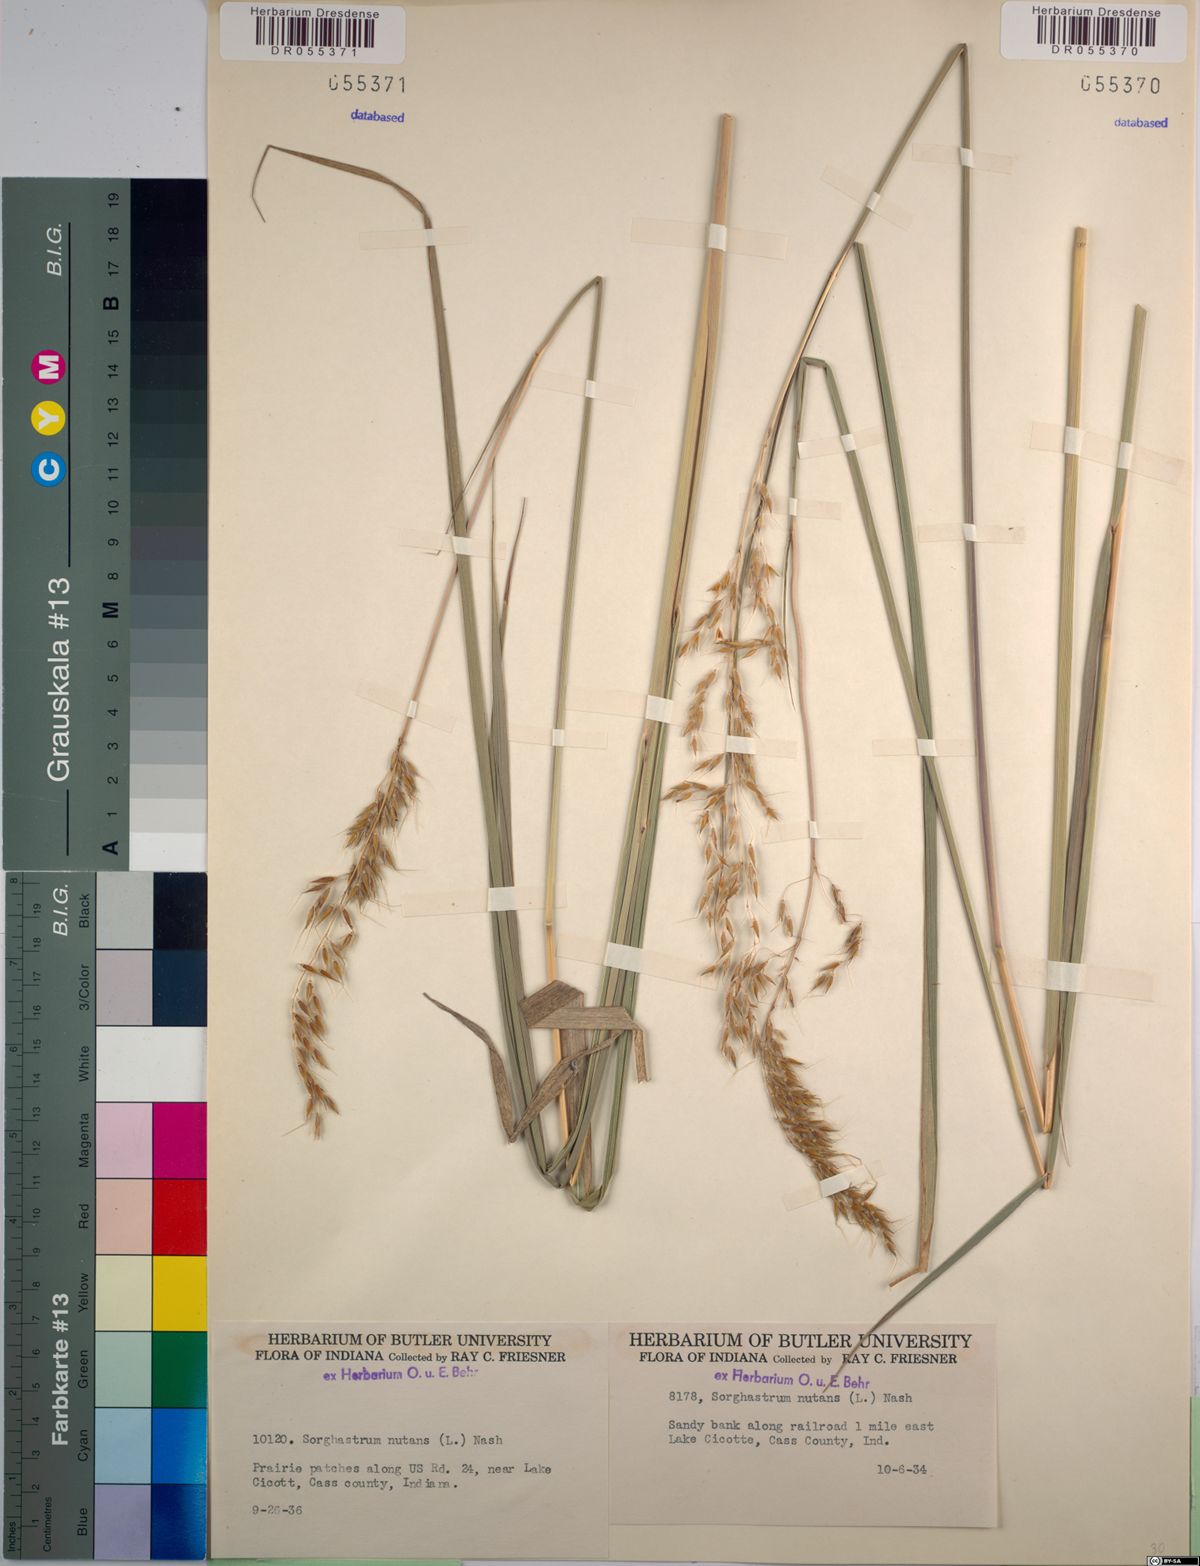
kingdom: Plantae
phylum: Tracheophyta
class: Liliopsida
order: Poales
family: Poaceae
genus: Sorghastrum
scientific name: Sorghastrum nutans
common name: Indian grass
